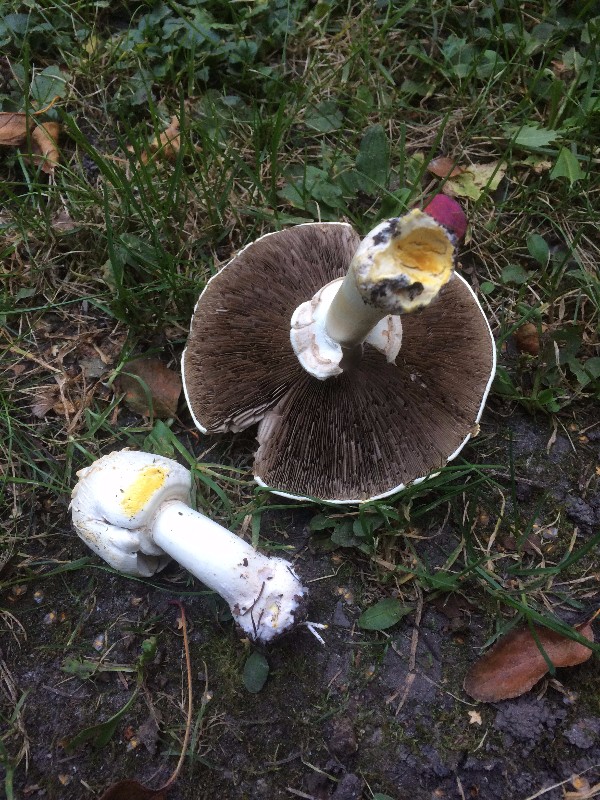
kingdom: Fungi
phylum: Basidiomycota
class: Agaricomycetes
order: Agaricales
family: Agaricaceae
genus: Agaricus
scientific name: Agaricus xanthodermus
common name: karbol-champignon
